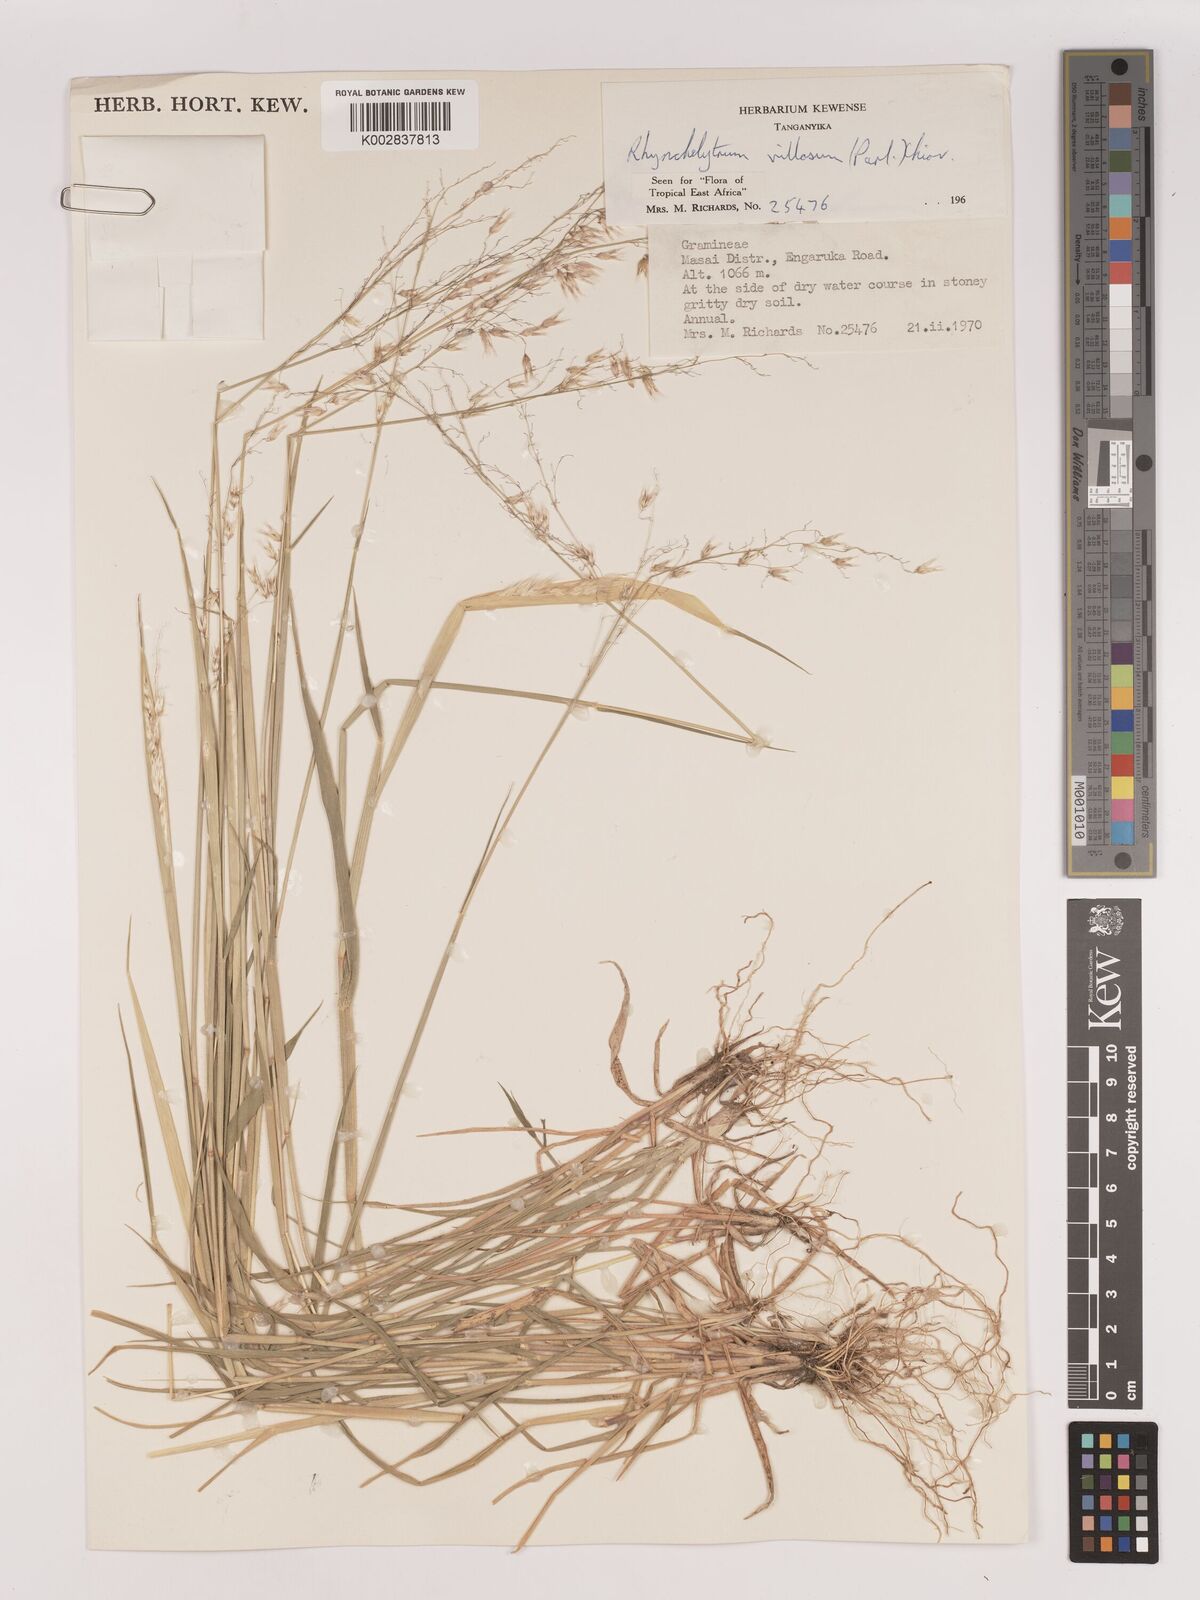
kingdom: Plantae
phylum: Tracheophyta
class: Liliopsida
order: Poales
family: Poaceae
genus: Melinis
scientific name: Melinis repens
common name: Rose natal grass
